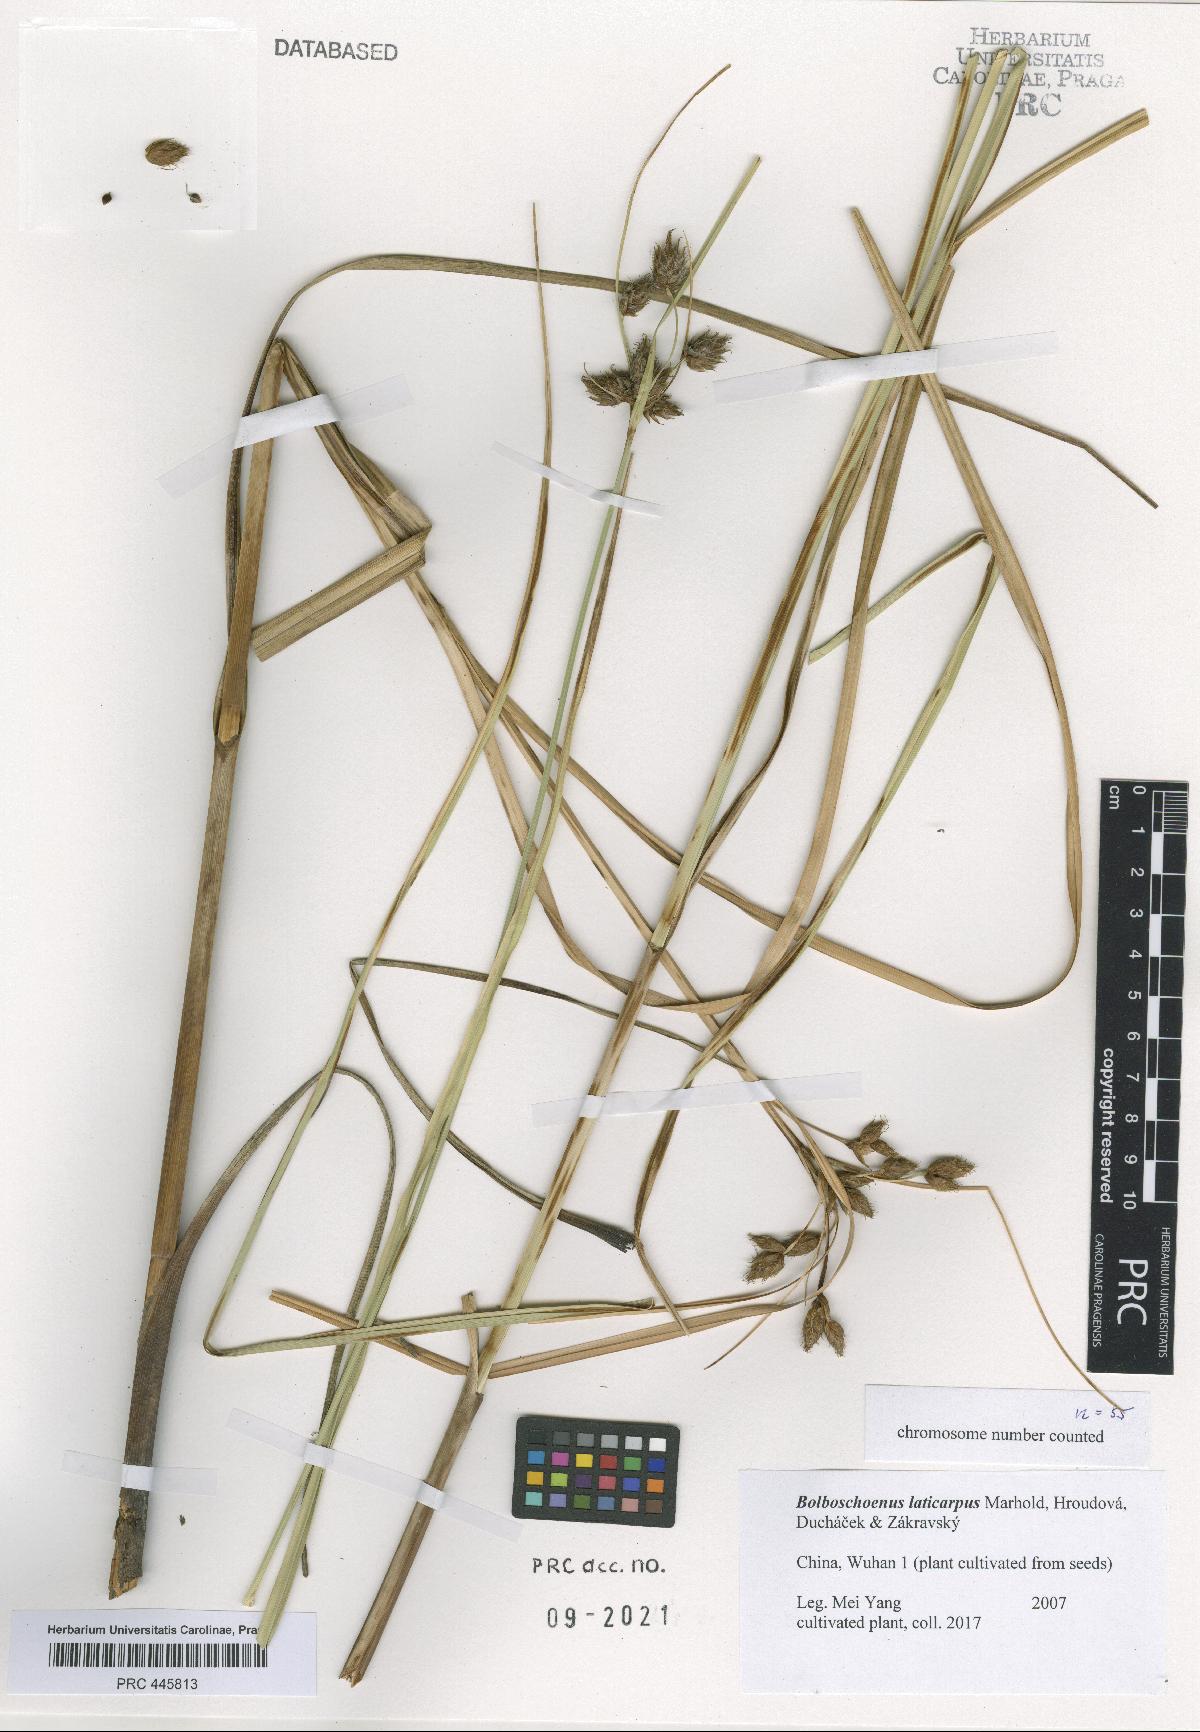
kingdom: Plantae
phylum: Tracheophyta
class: Liliopsida
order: Poales
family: Cyperaceae
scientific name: Cyperaceae
